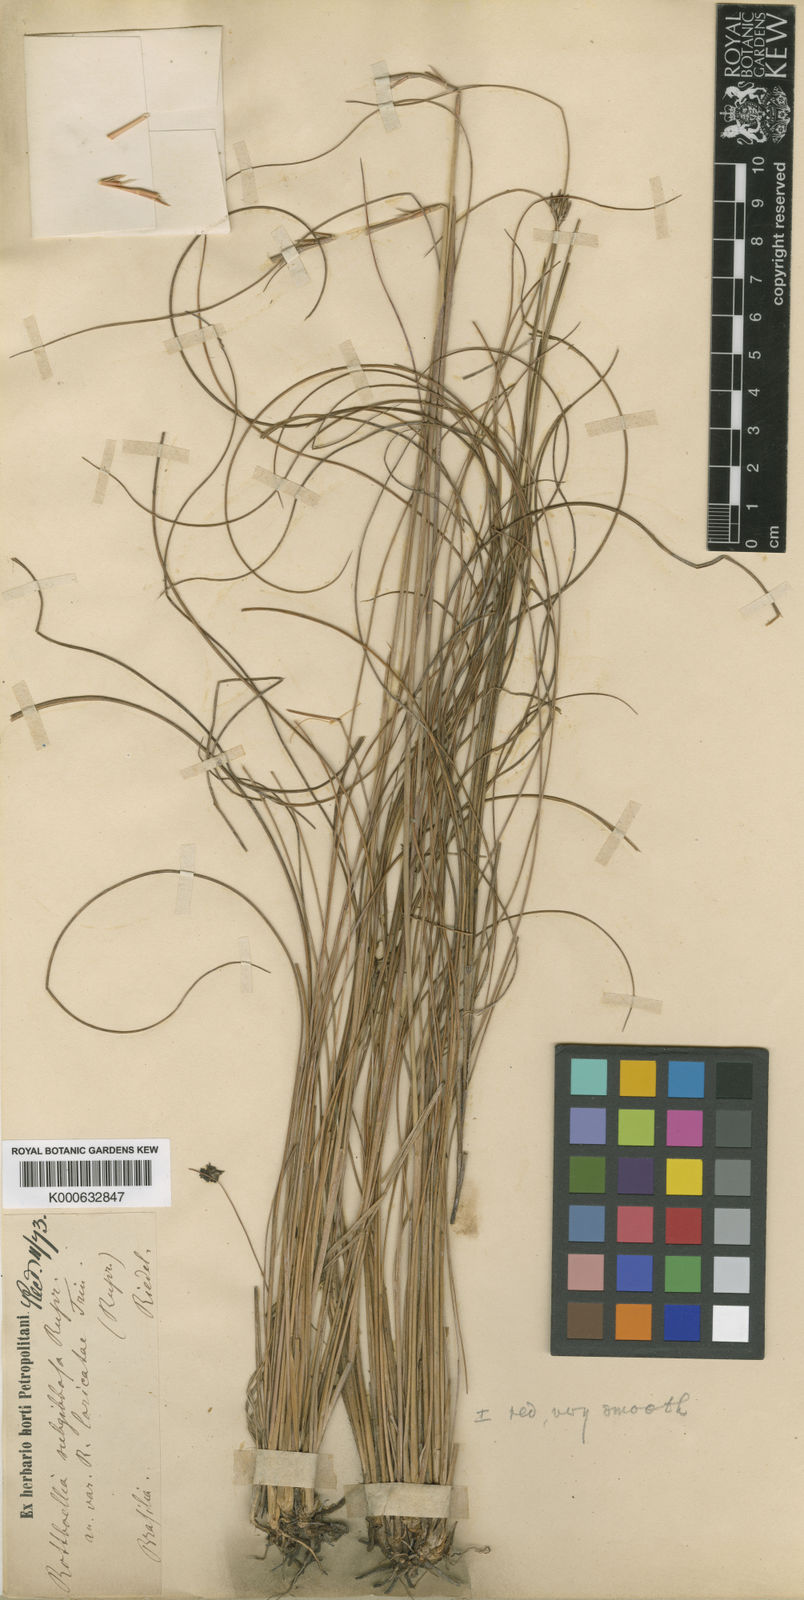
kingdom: Plantae
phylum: Tracheophyta
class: Liliopsida
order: Poales
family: Poaceae
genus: Rhytachne
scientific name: Rhytachne subgibbosa
